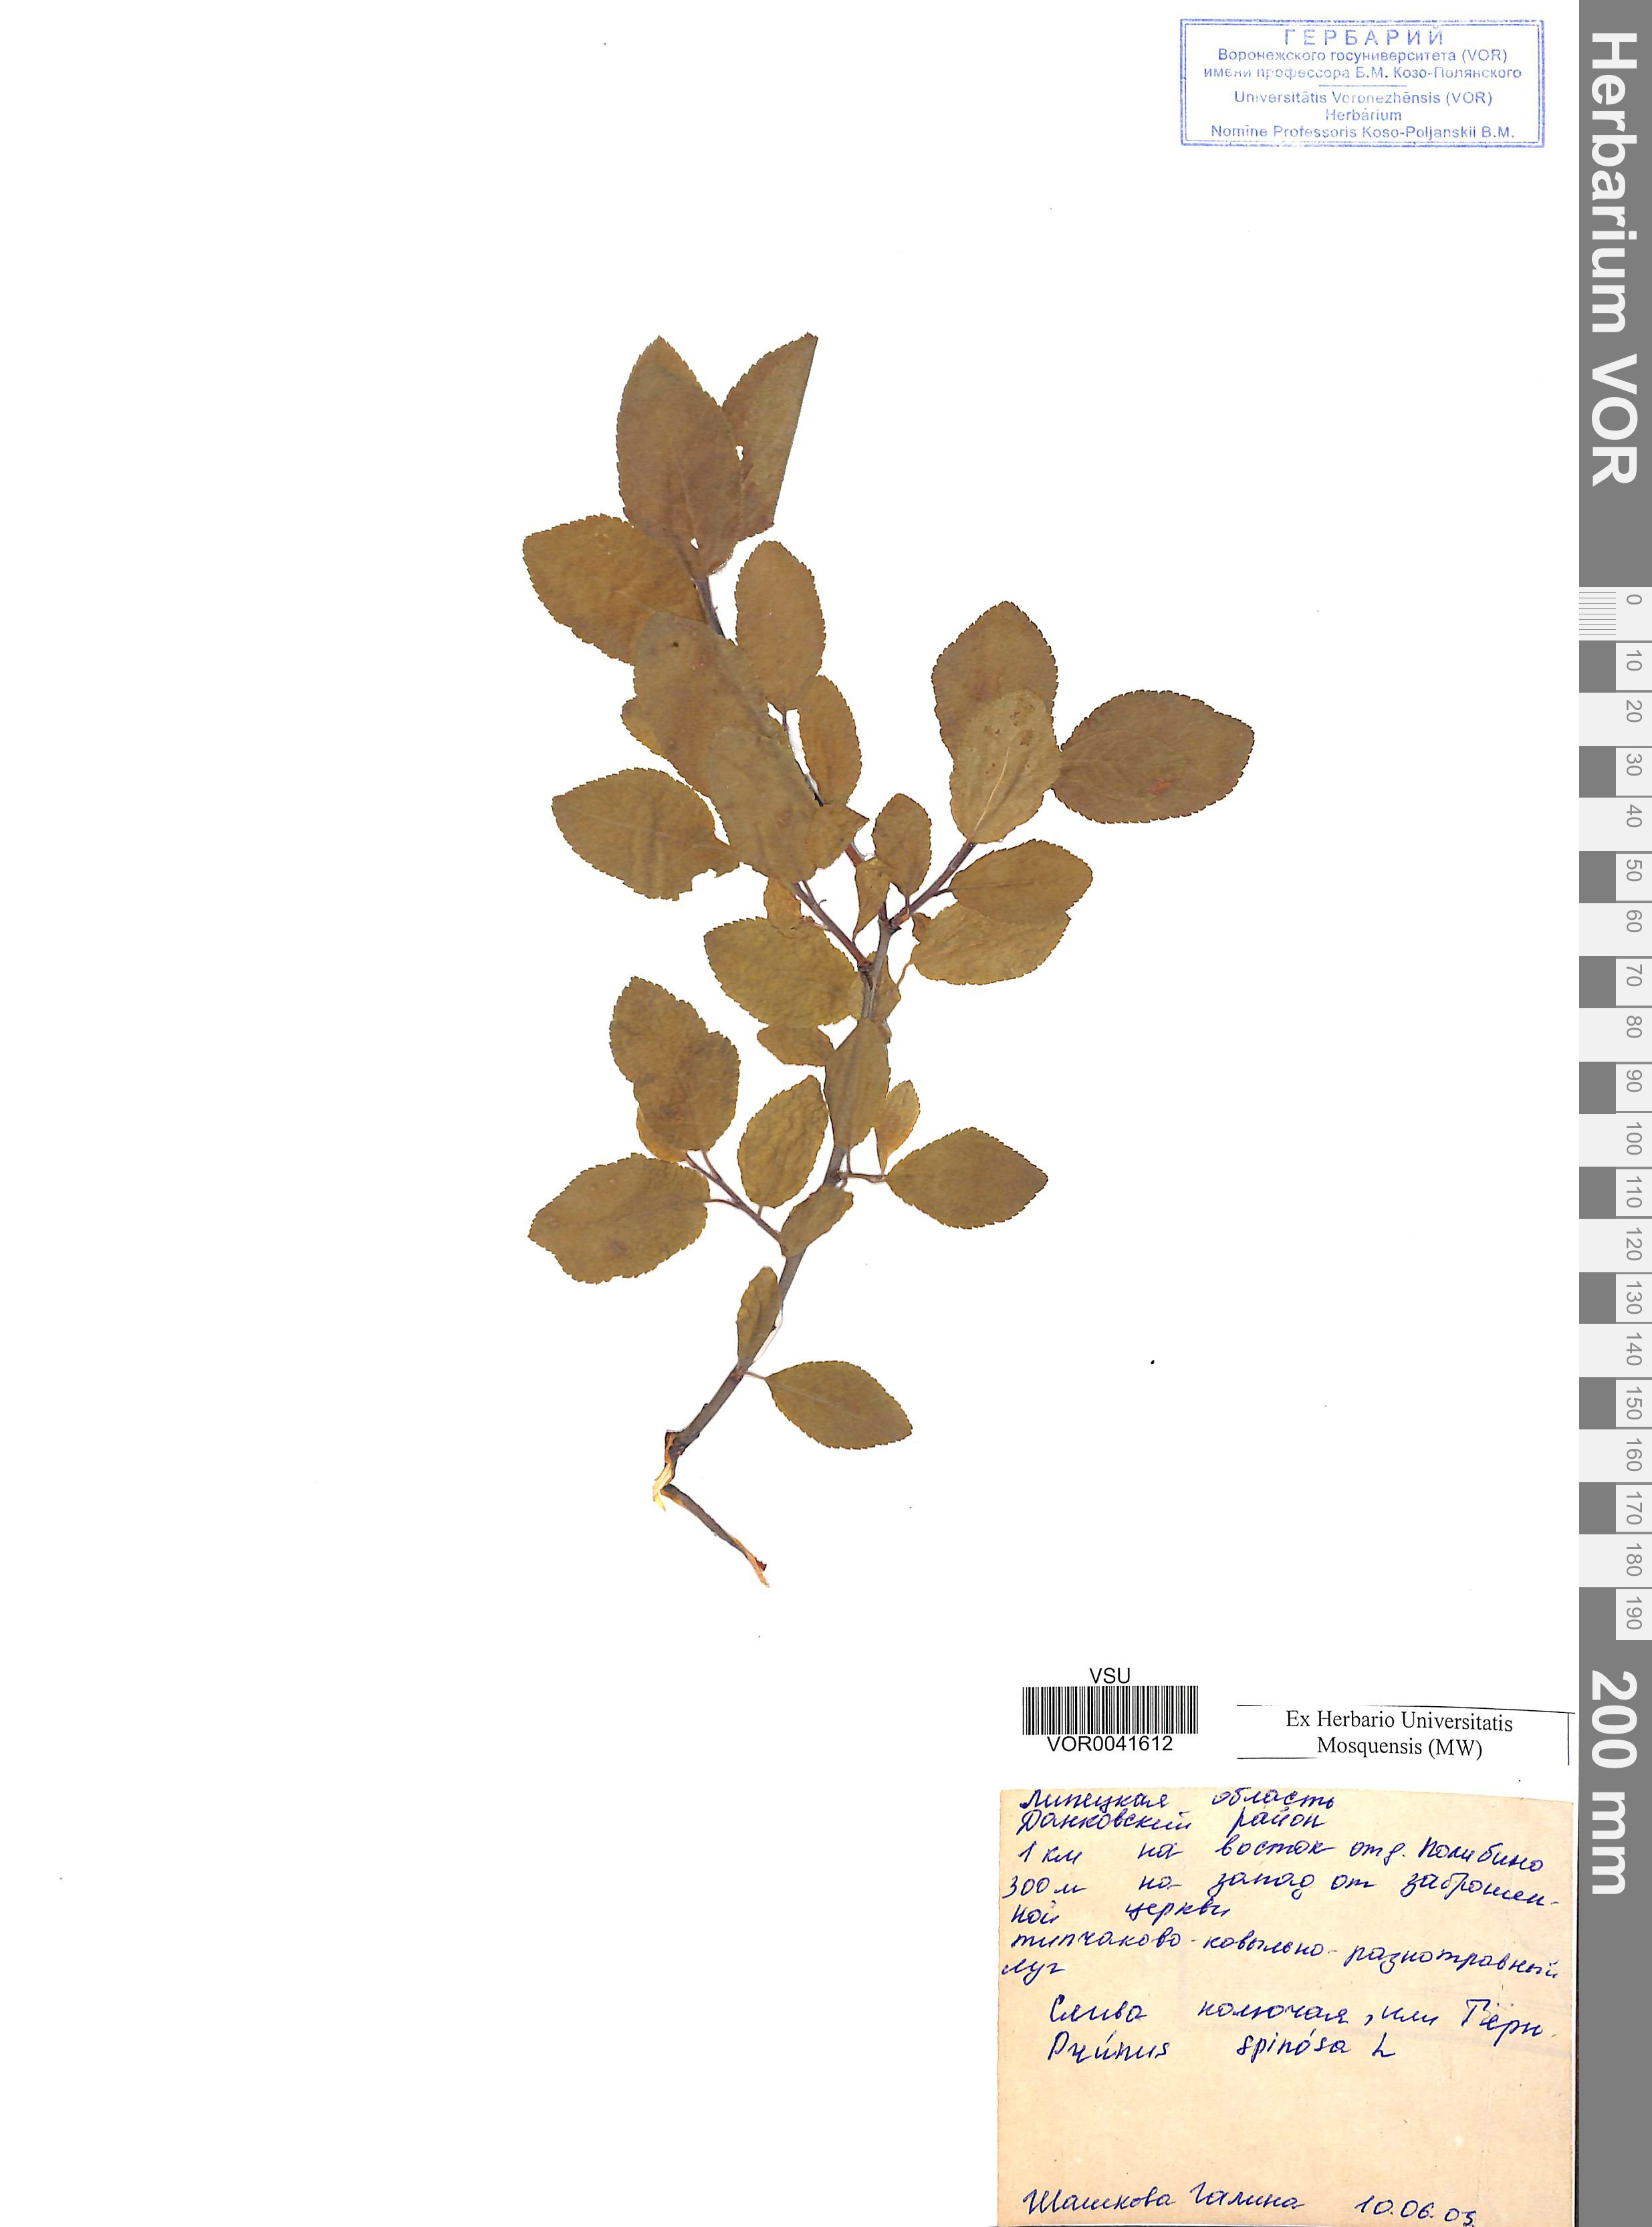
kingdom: Plantae
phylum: Tracheophyta
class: Magnoliopsida
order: Rosales
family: Rosaceae
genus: Prunus
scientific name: Prunus spinosa
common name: Blackthorn
